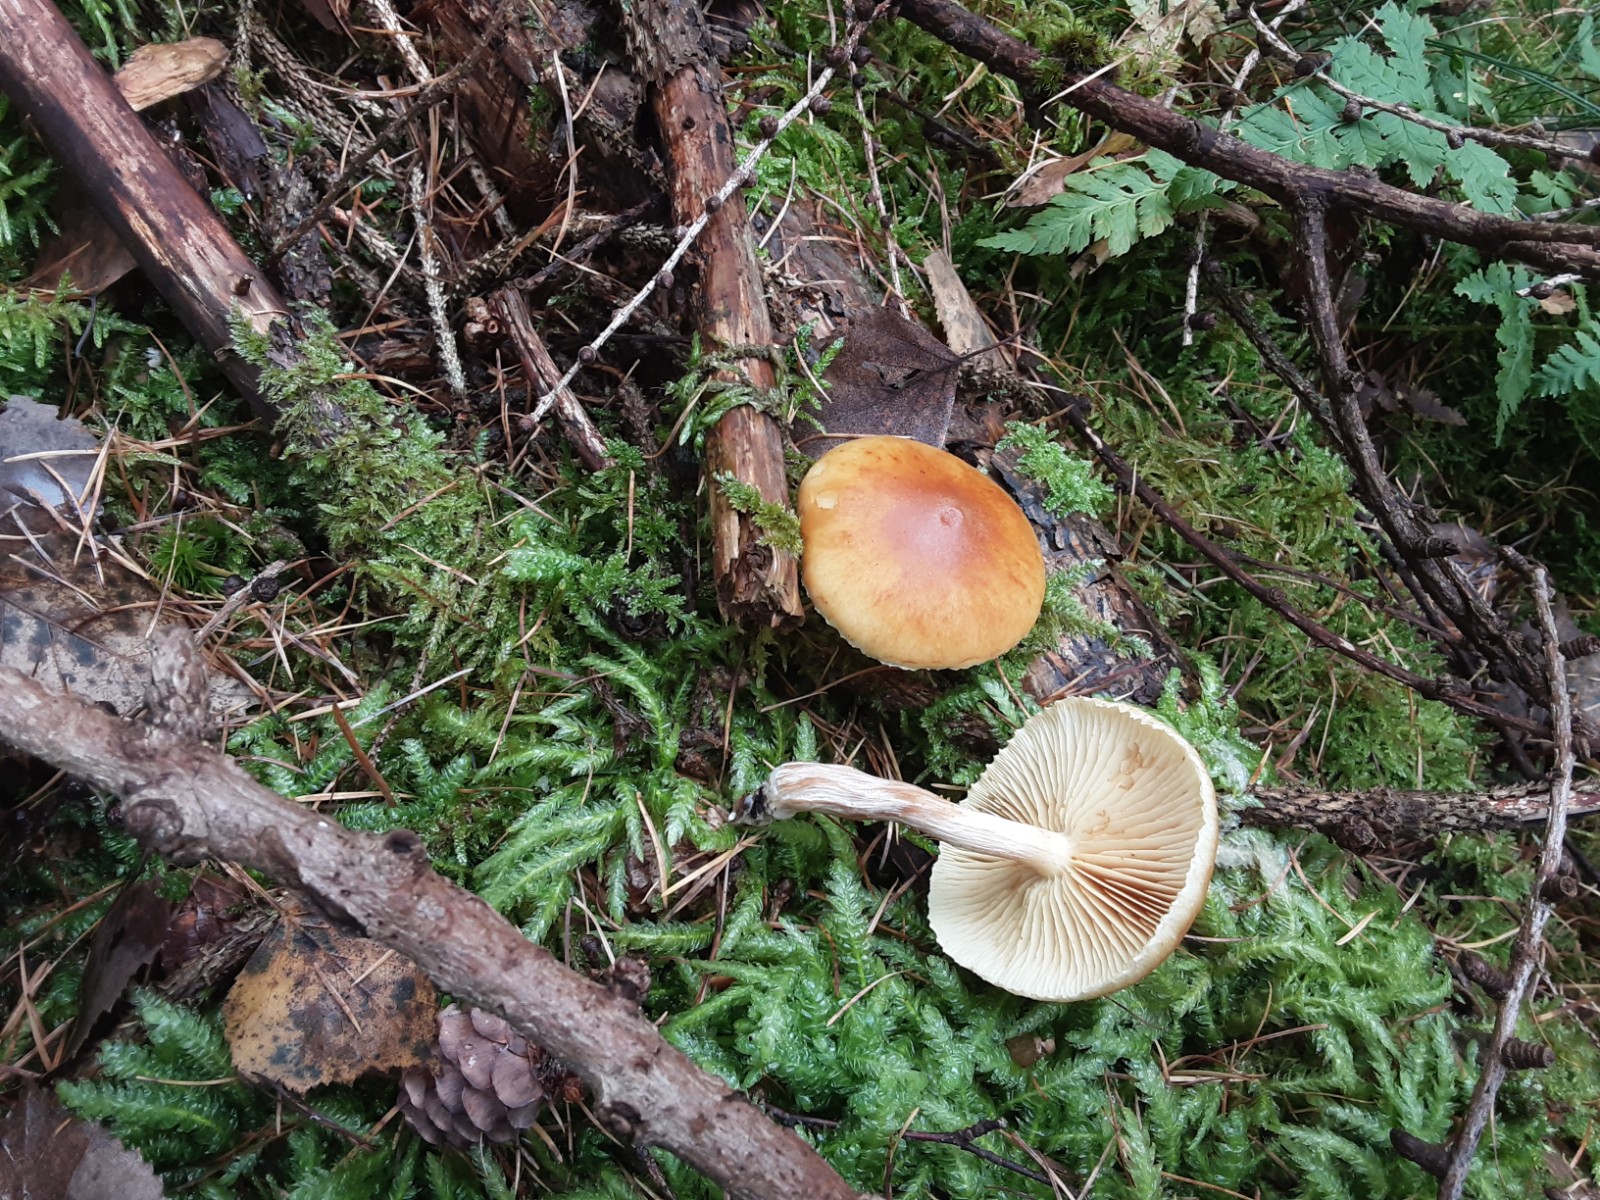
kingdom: Fungi
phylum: Basidiomycota
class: Agaricomycetes
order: Agaricales
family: Hymenogastraceae
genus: Gymnopilus
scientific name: Gymnopilus penetrans
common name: plettet flammehat
